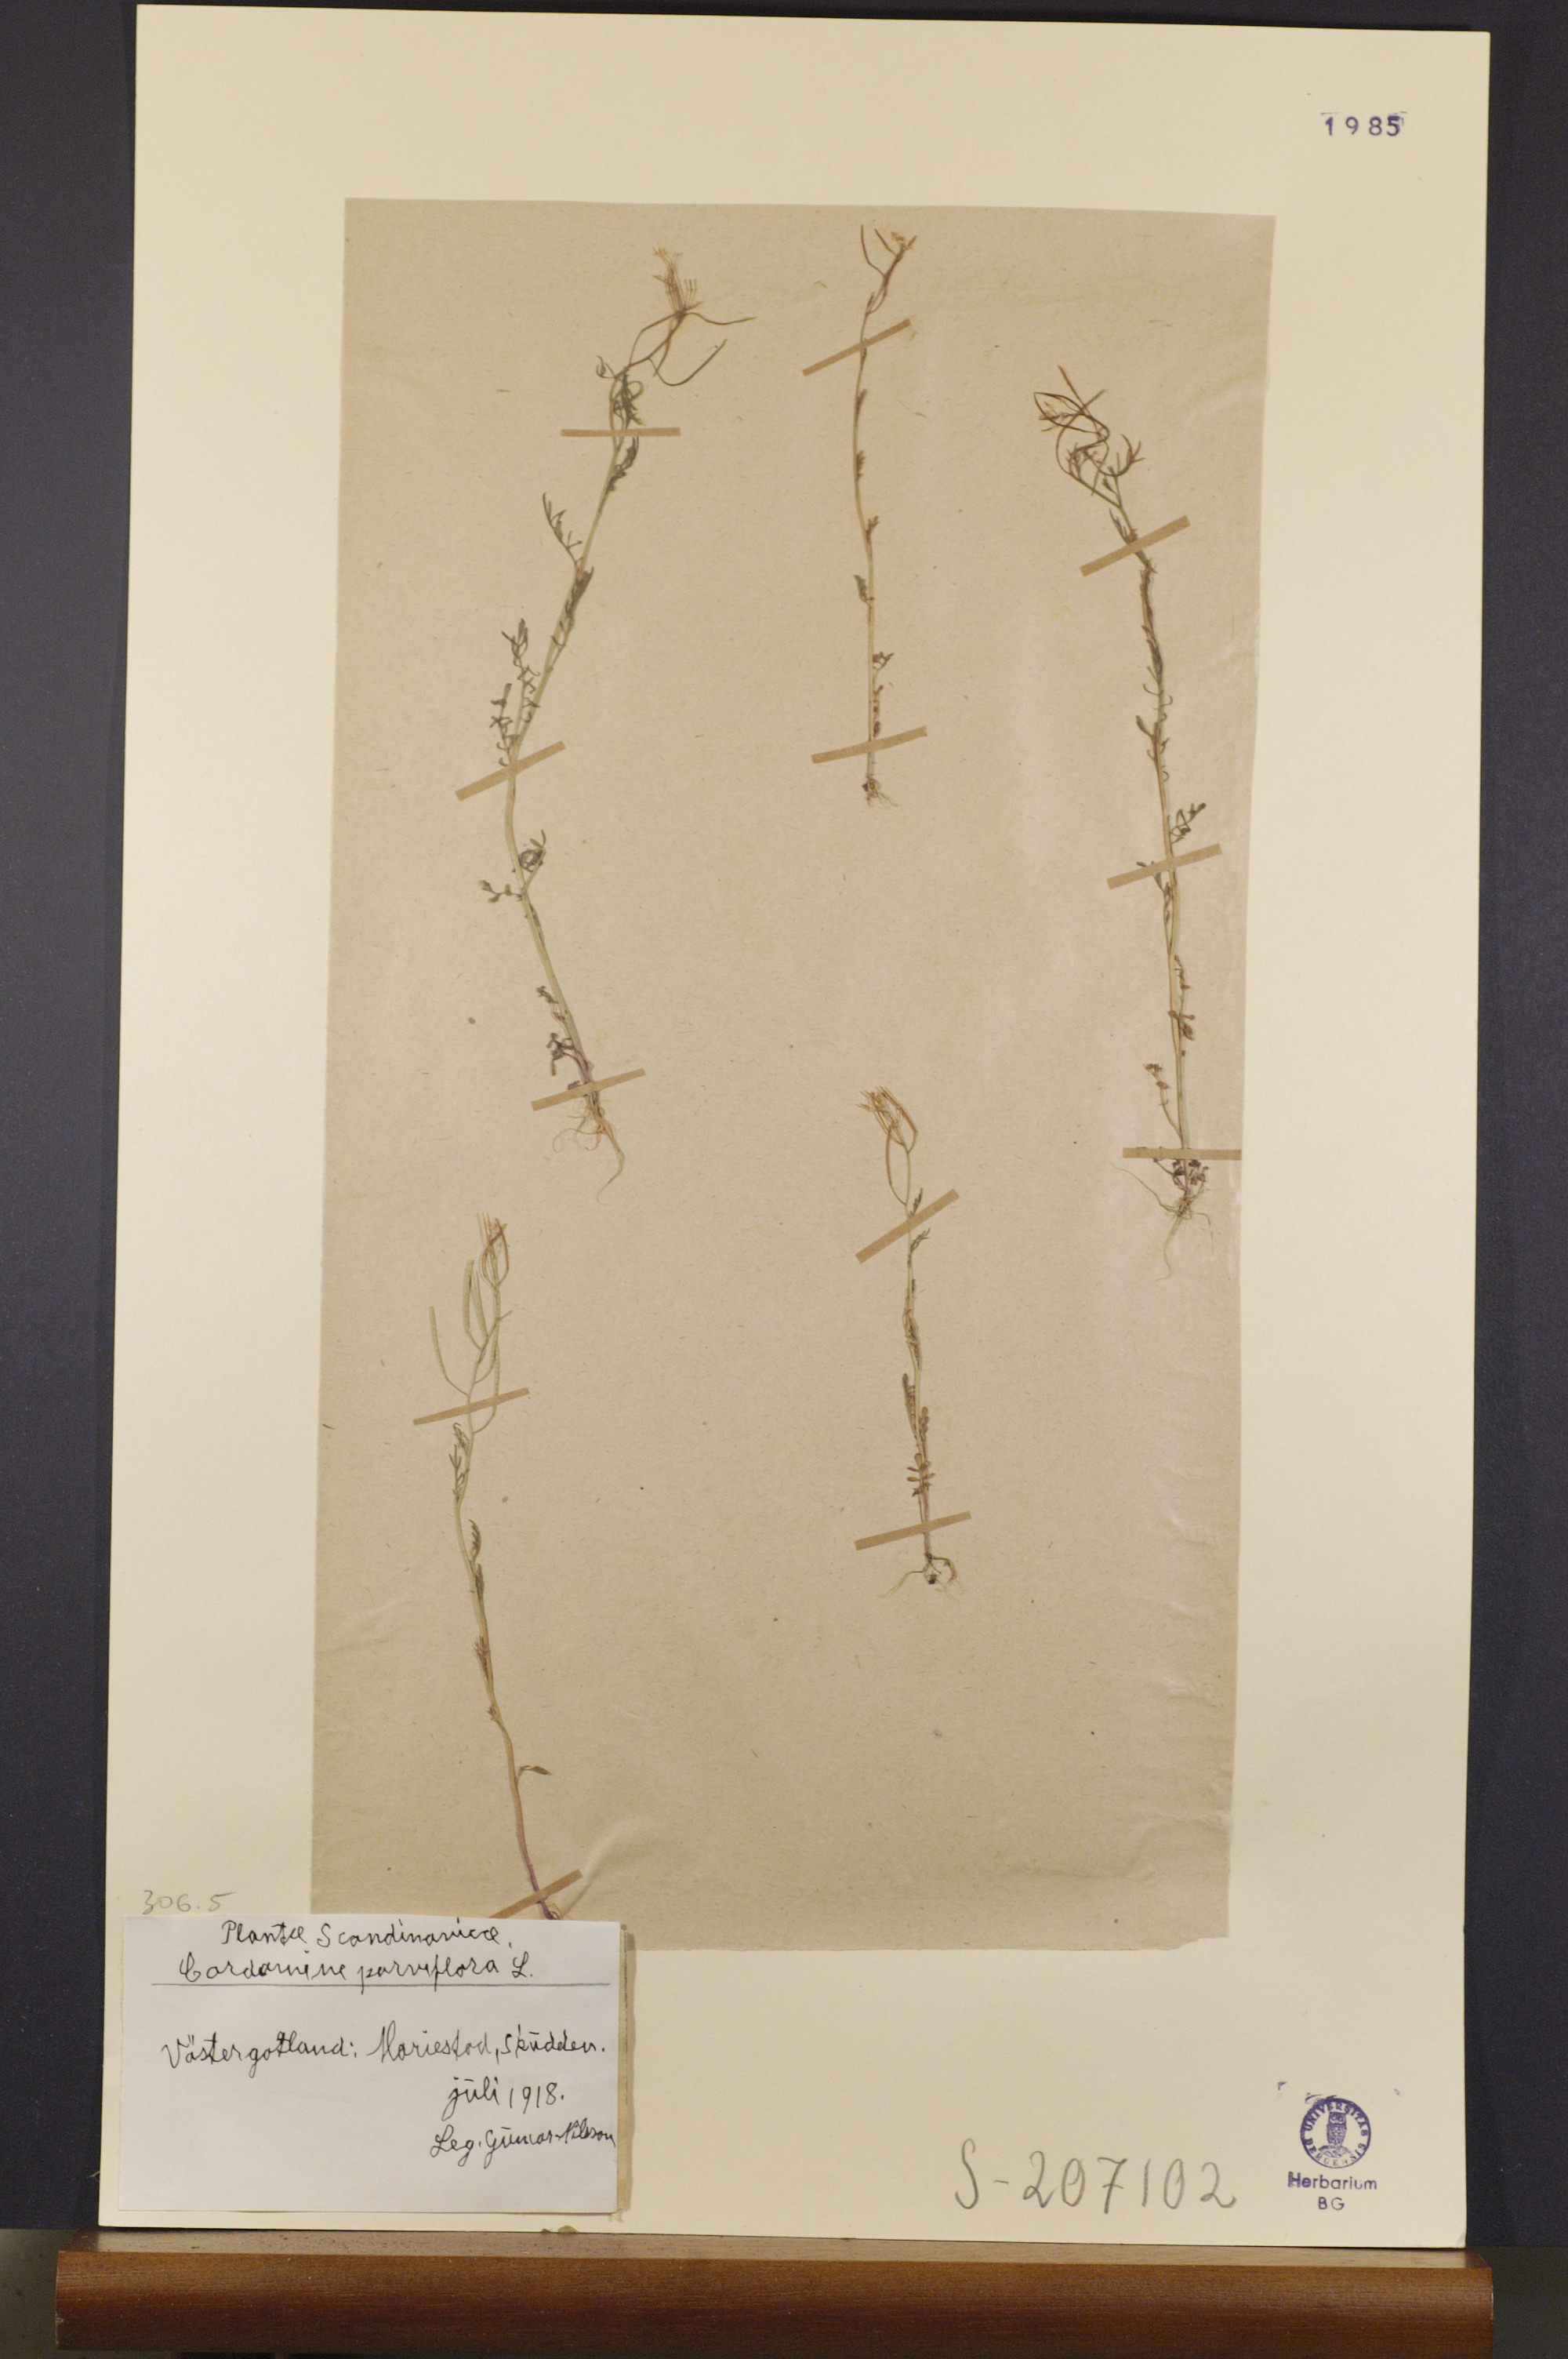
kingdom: Plantae
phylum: Tracheophyta
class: Magnoliopsida
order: Brassicales
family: Brassicaceae
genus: Cardamine
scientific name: Cardamine parviflora
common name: Sand bittercress
